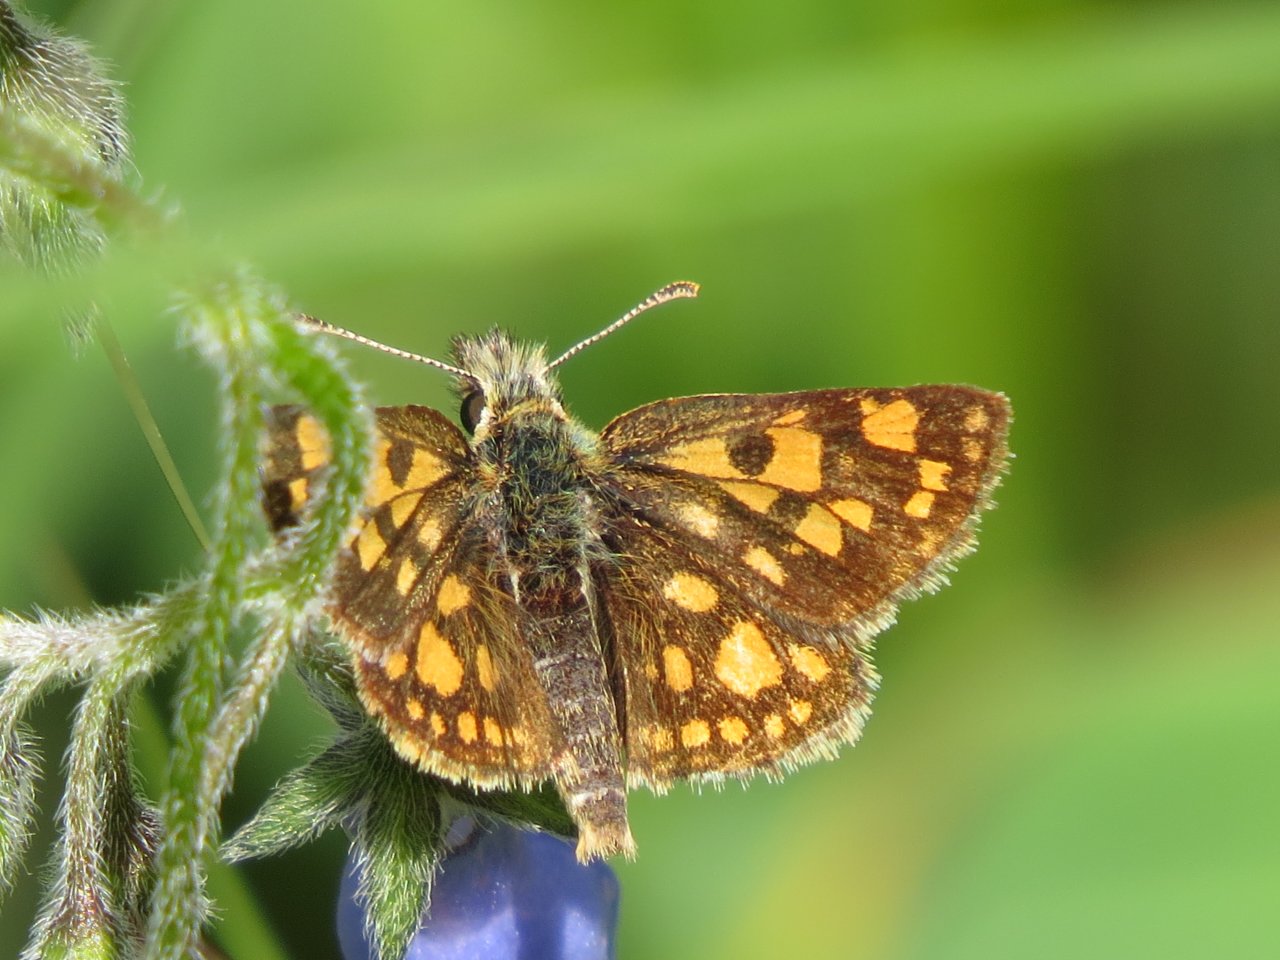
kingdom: Animalia
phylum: Arthropoda
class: Insecta
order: Lepidoptera
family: Hesperiidae
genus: Carterocephalus
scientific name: Carterocephalus palaemon
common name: Chequered Skipper
